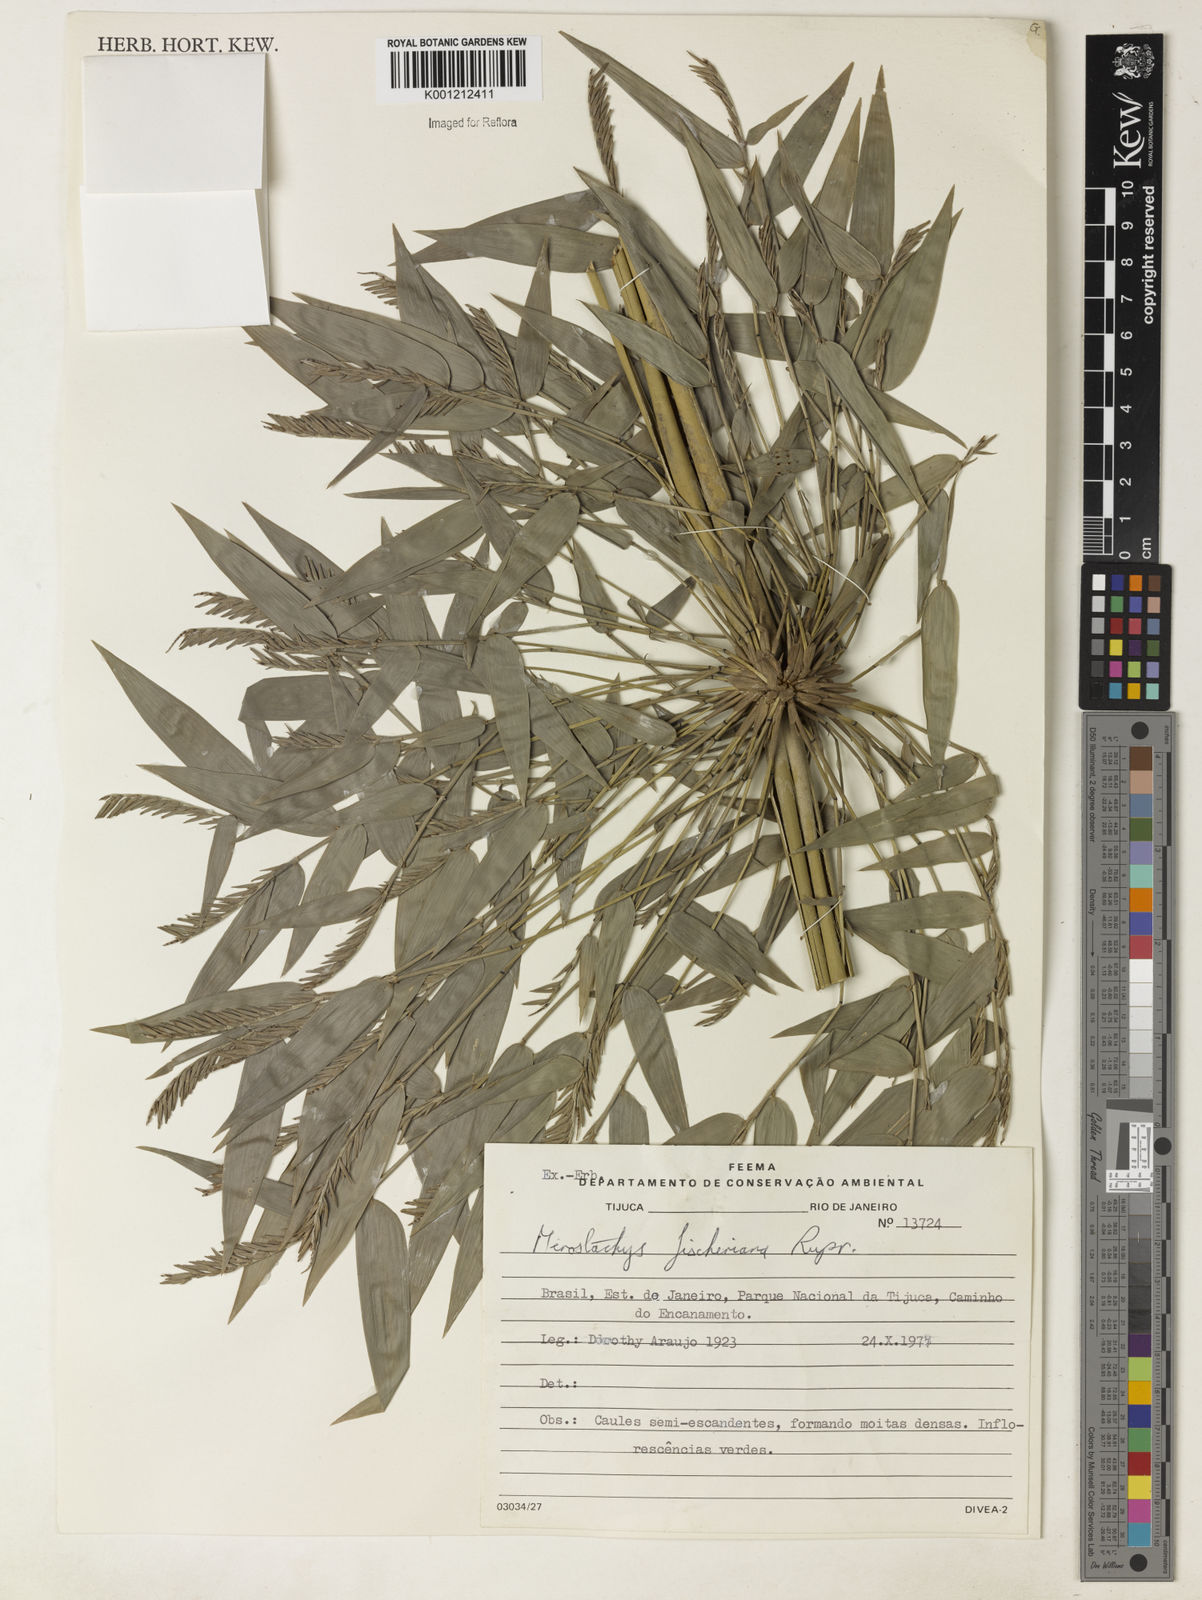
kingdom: Plantae
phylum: Tracheophyta
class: Liliopsida
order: Poales
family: Poaceae
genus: Merostachys
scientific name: Merostachys
